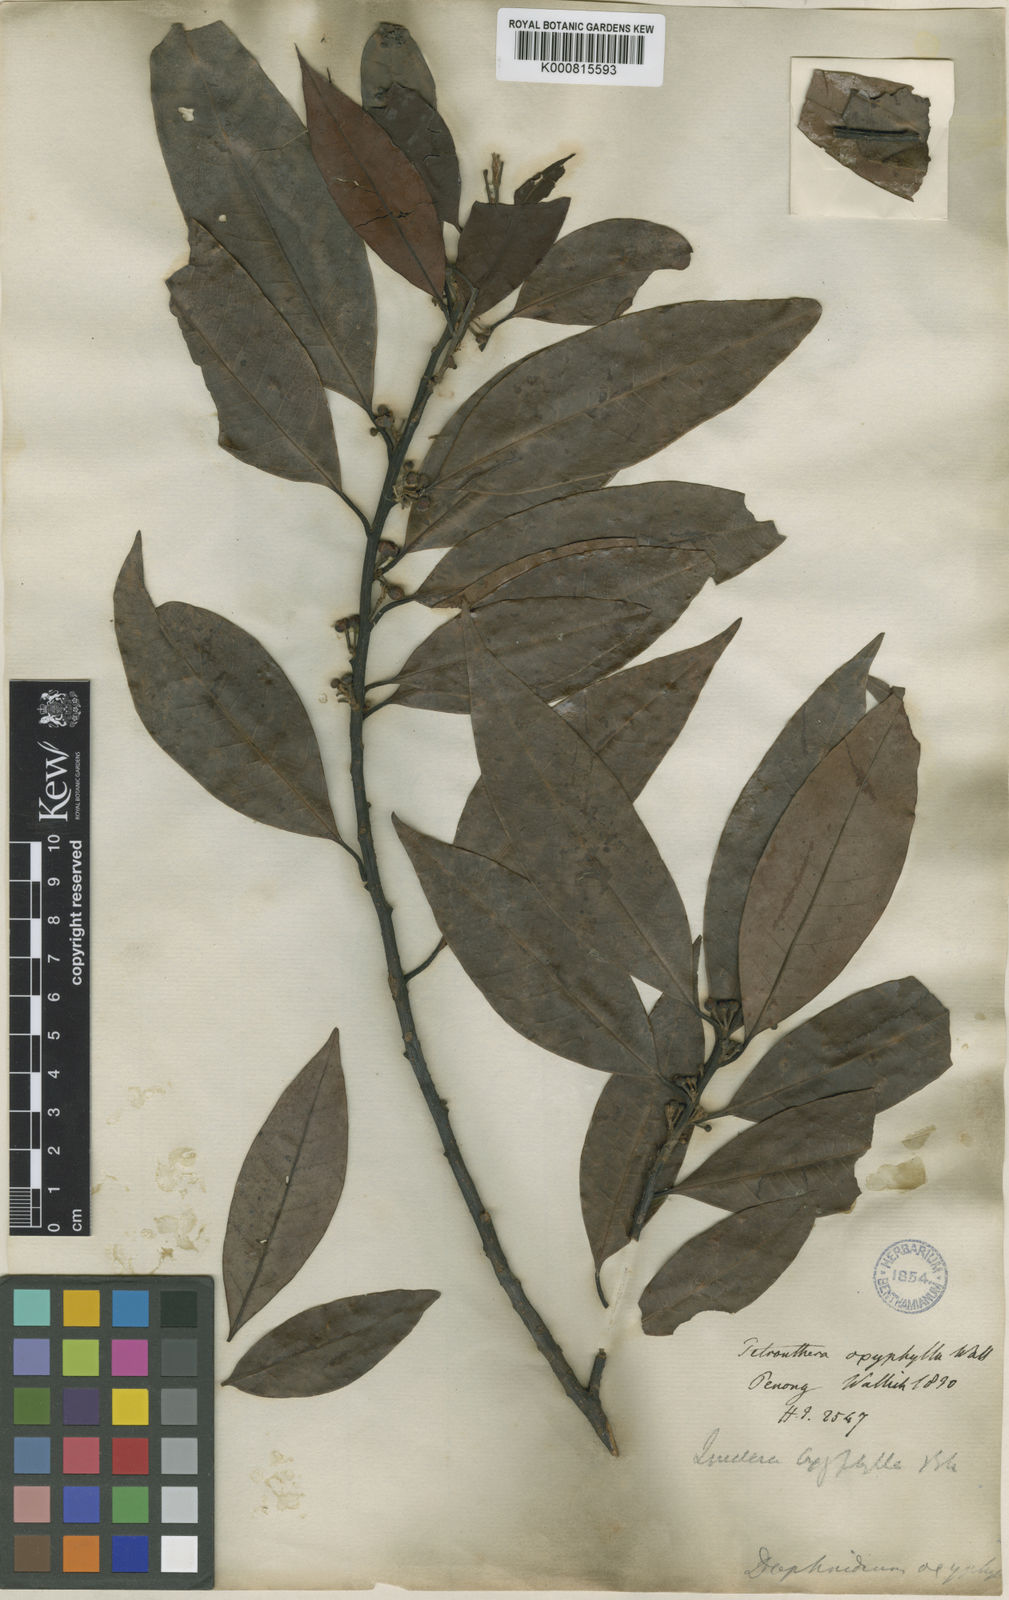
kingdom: Plantae
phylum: Tracheophyta
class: Magnoliopsida
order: Laurales
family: Lauraceae
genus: Lindera
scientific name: Lindera
